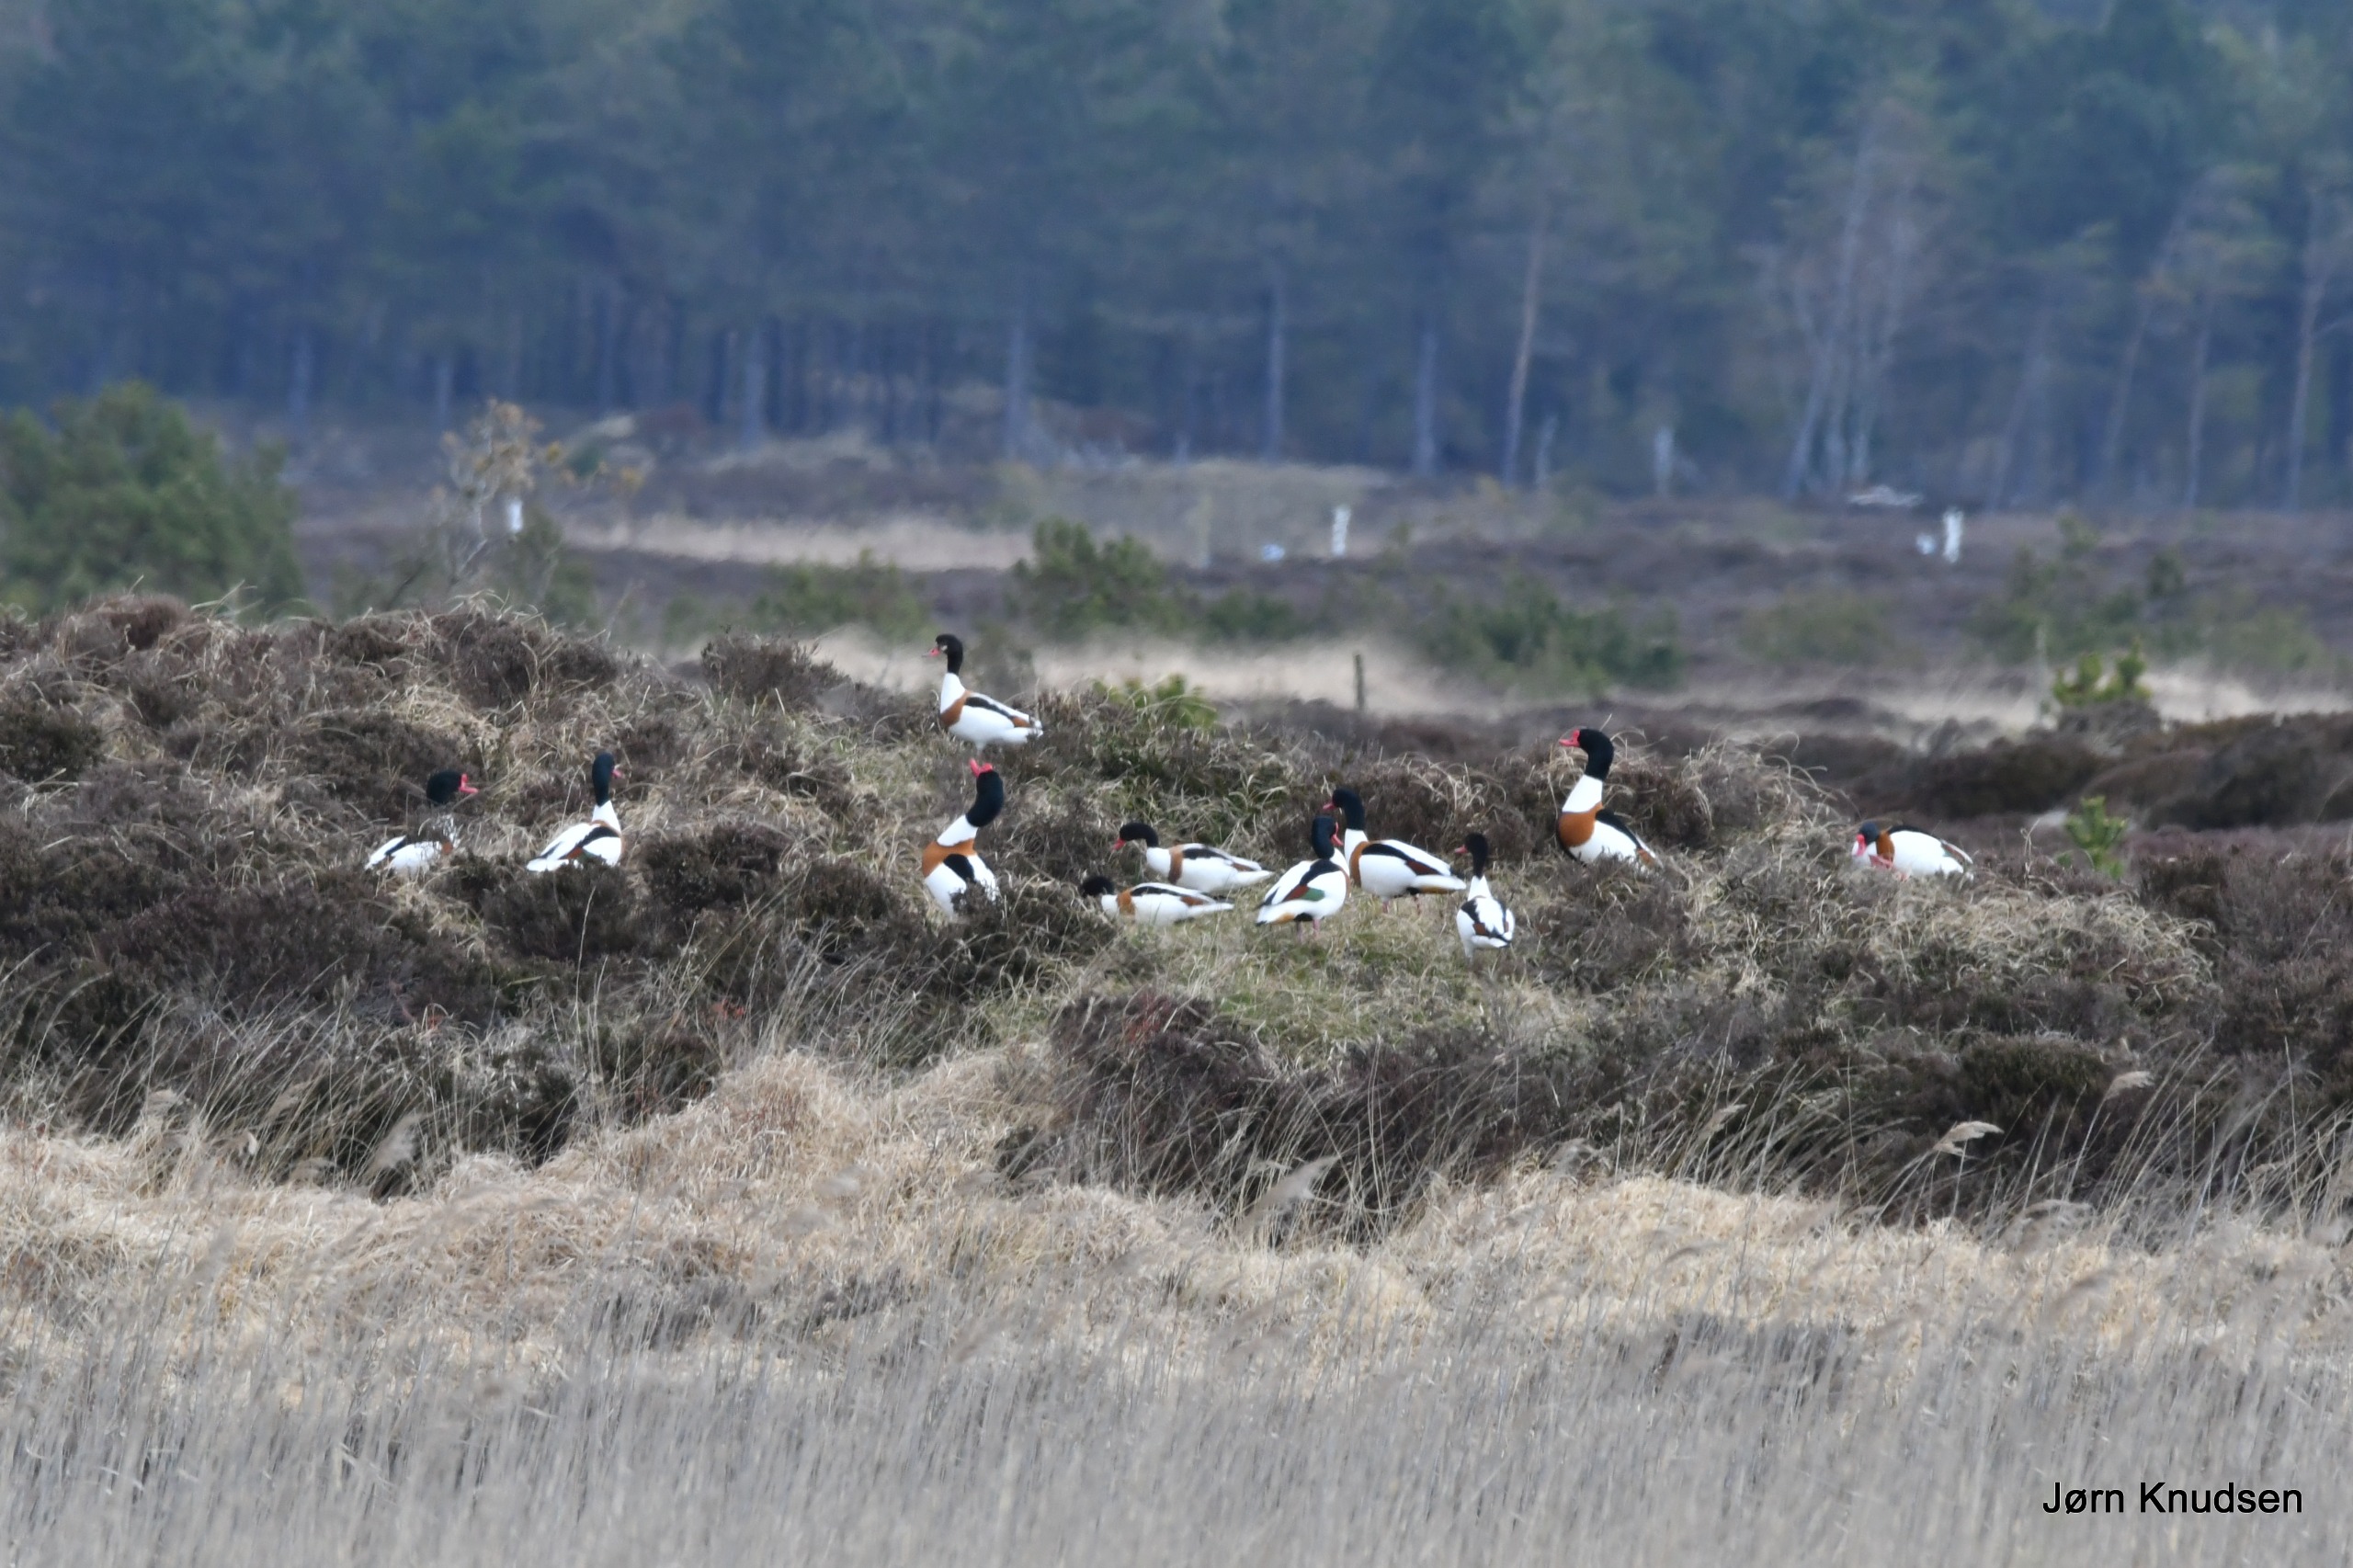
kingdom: Animalia
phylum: Chordata
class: Aves
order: Anseriformes
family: Anatidae
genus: Tadorna
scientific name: Tadorna tadorna
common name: Gravand
